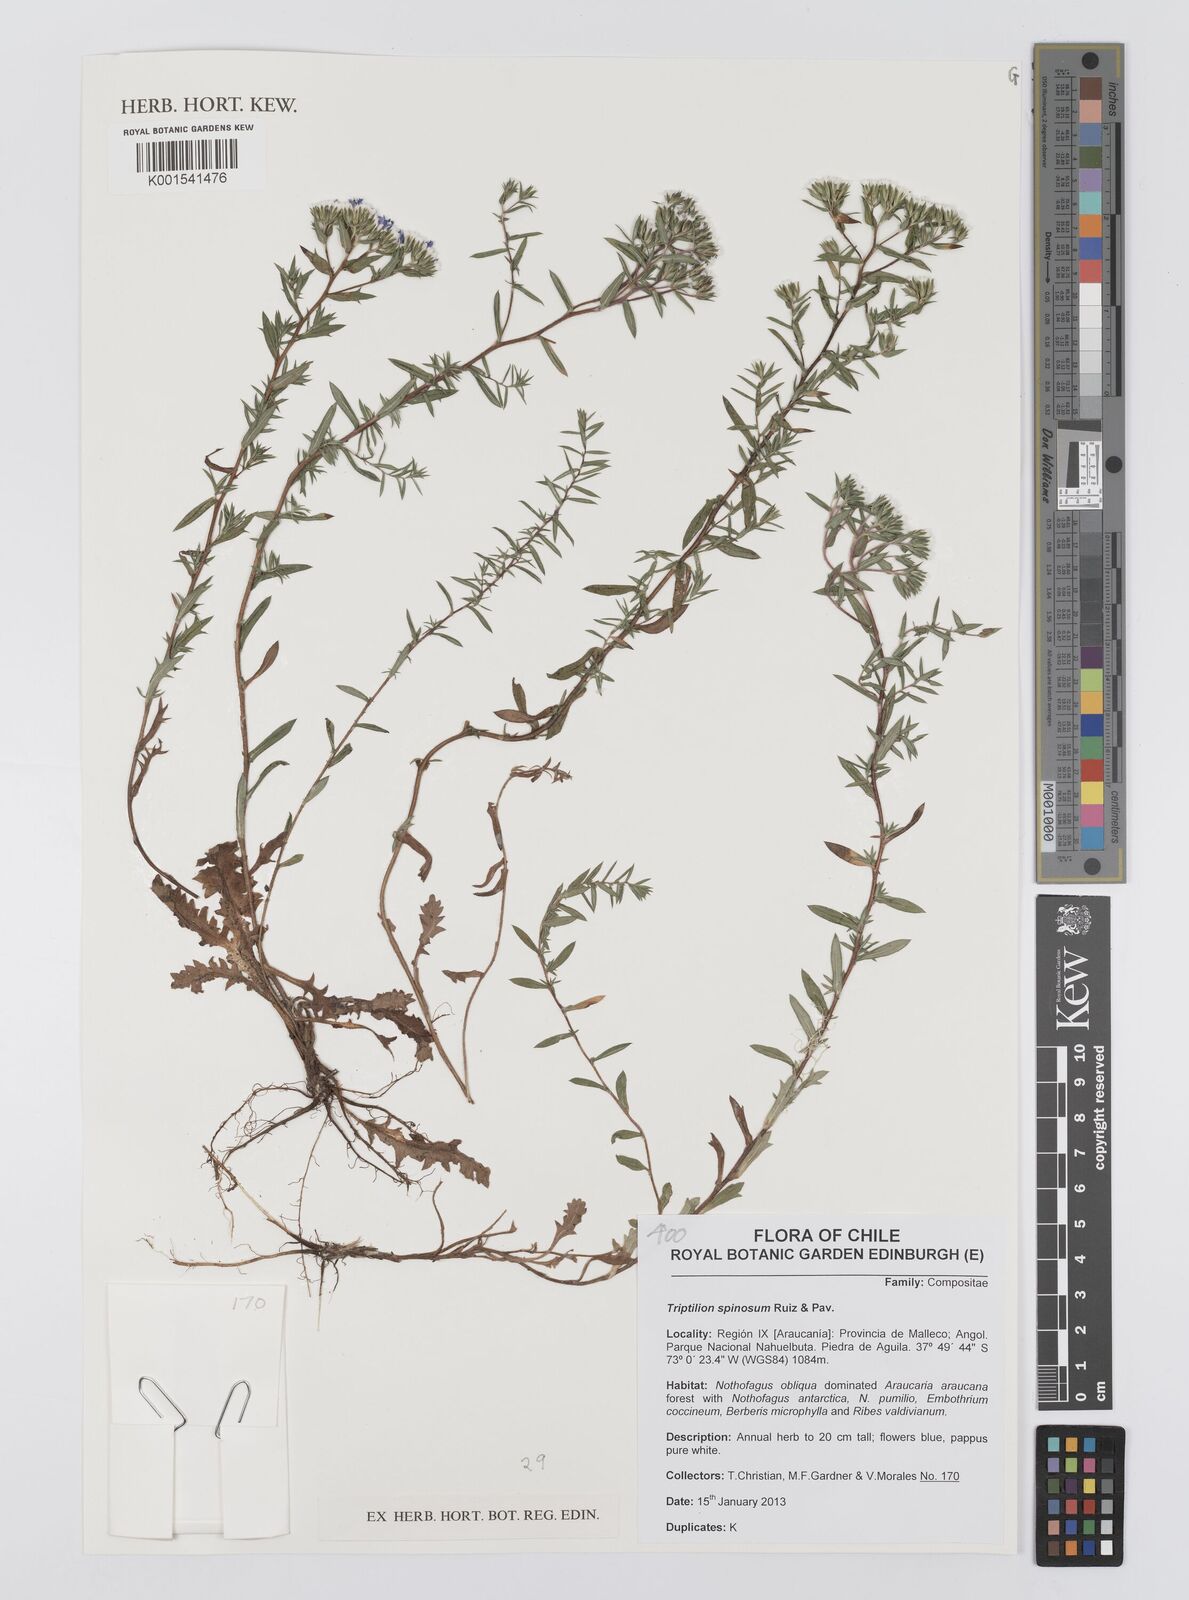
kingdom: Plantae
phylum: Tracheophyta
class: Magnoliopsida
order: Asterales
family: Asteraceae
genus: Triptilion
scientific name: Triptilion spinosum
